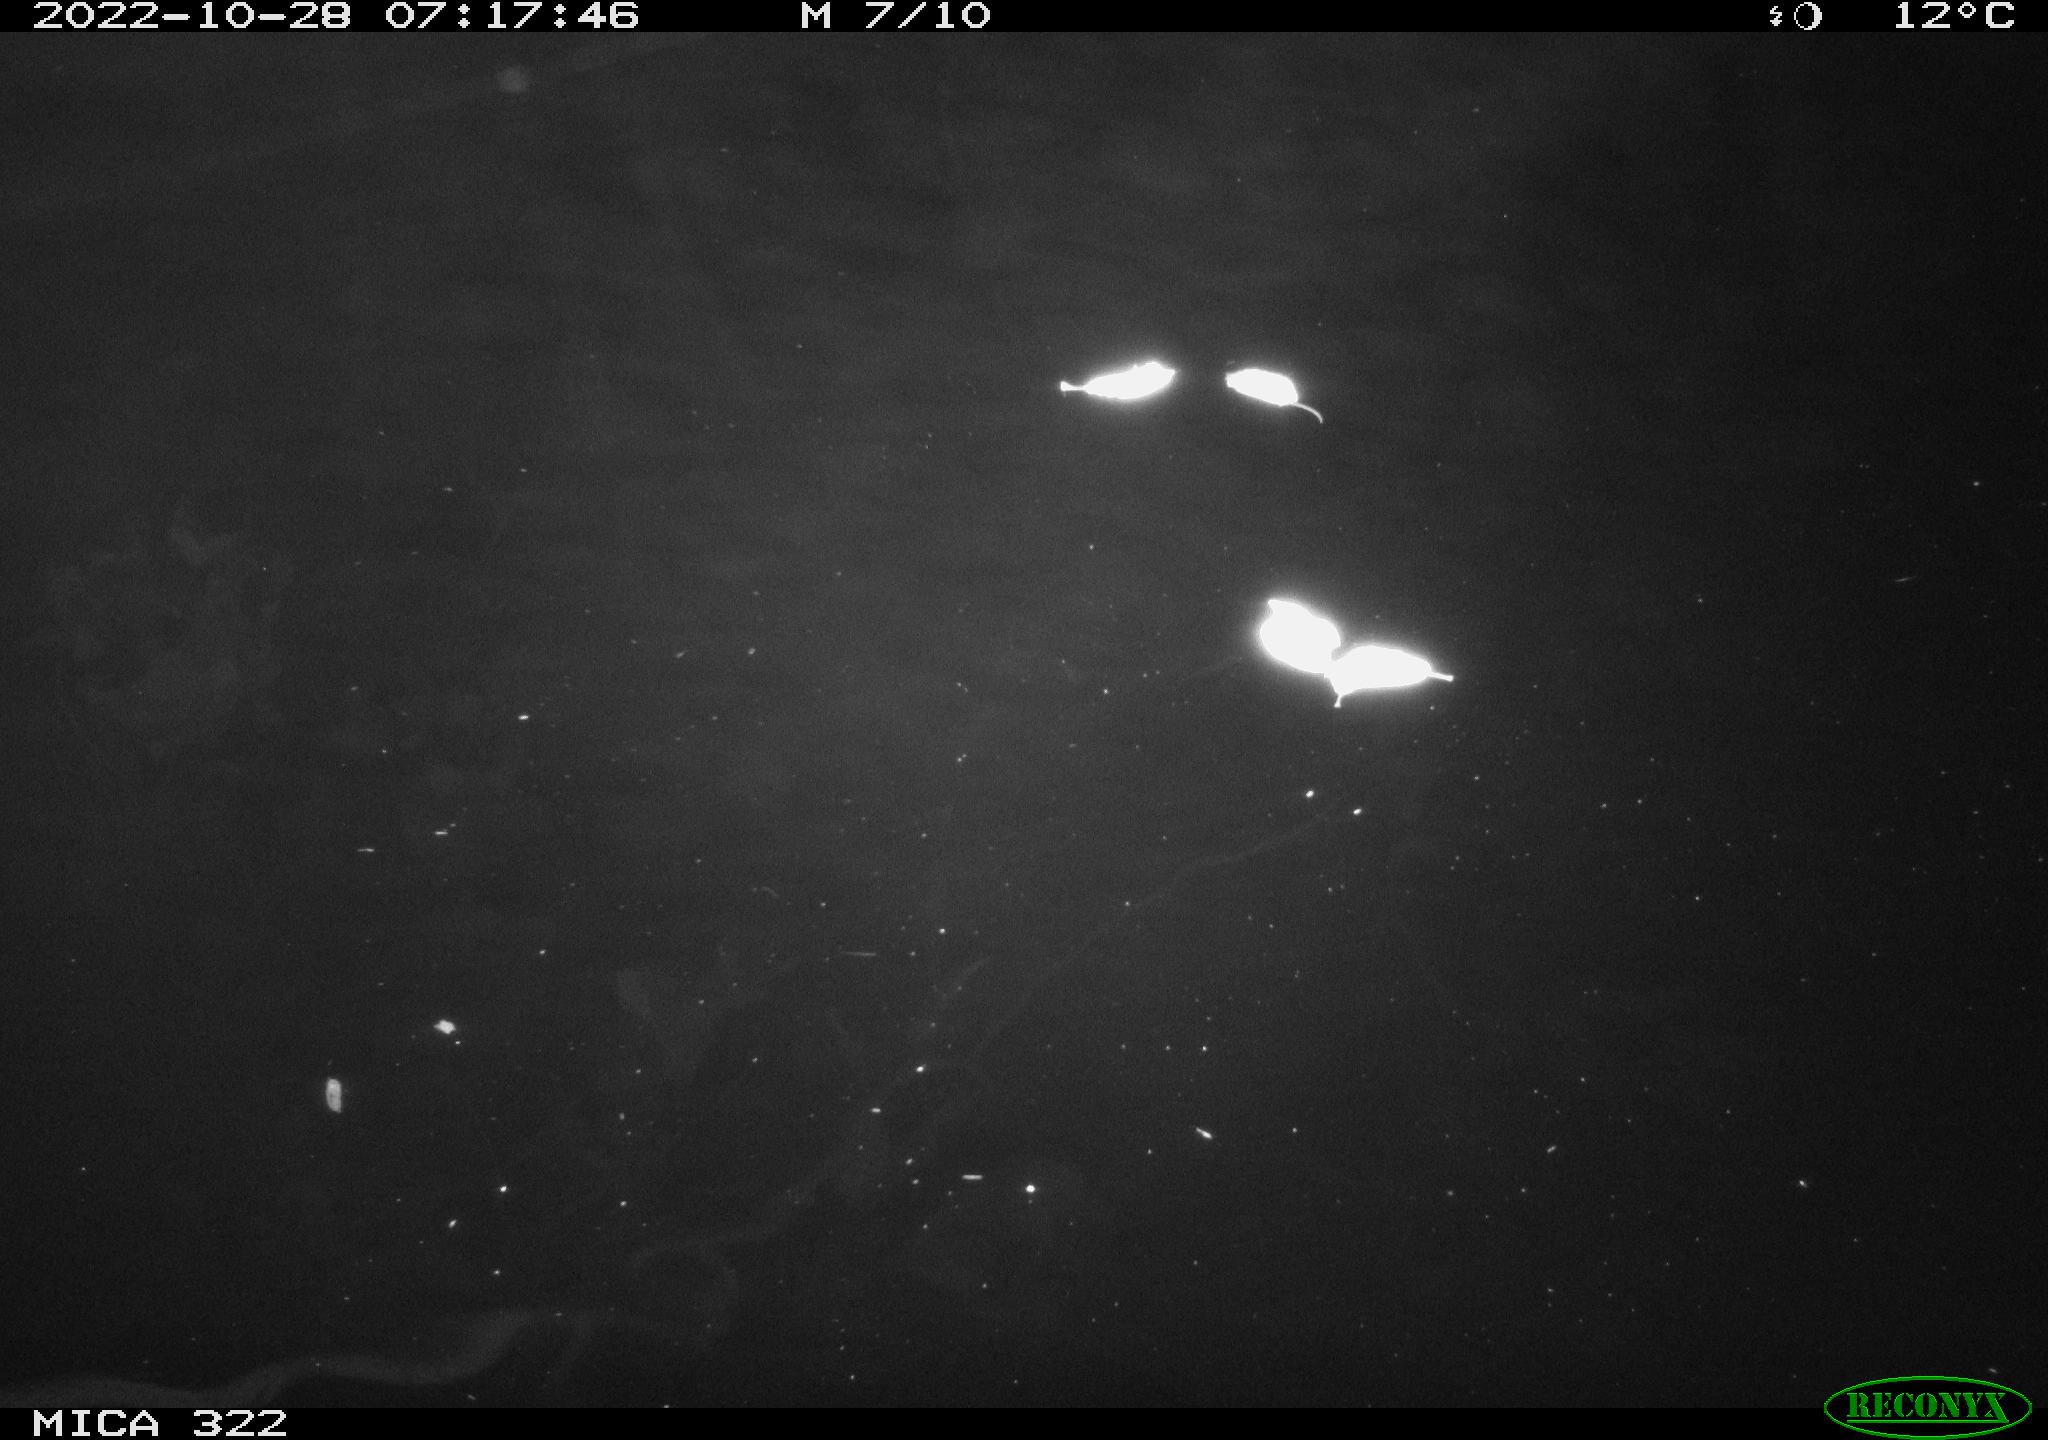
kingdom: Animalia
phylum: Chordata
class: Mammalia
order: Rodentia
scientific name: Rodentia
